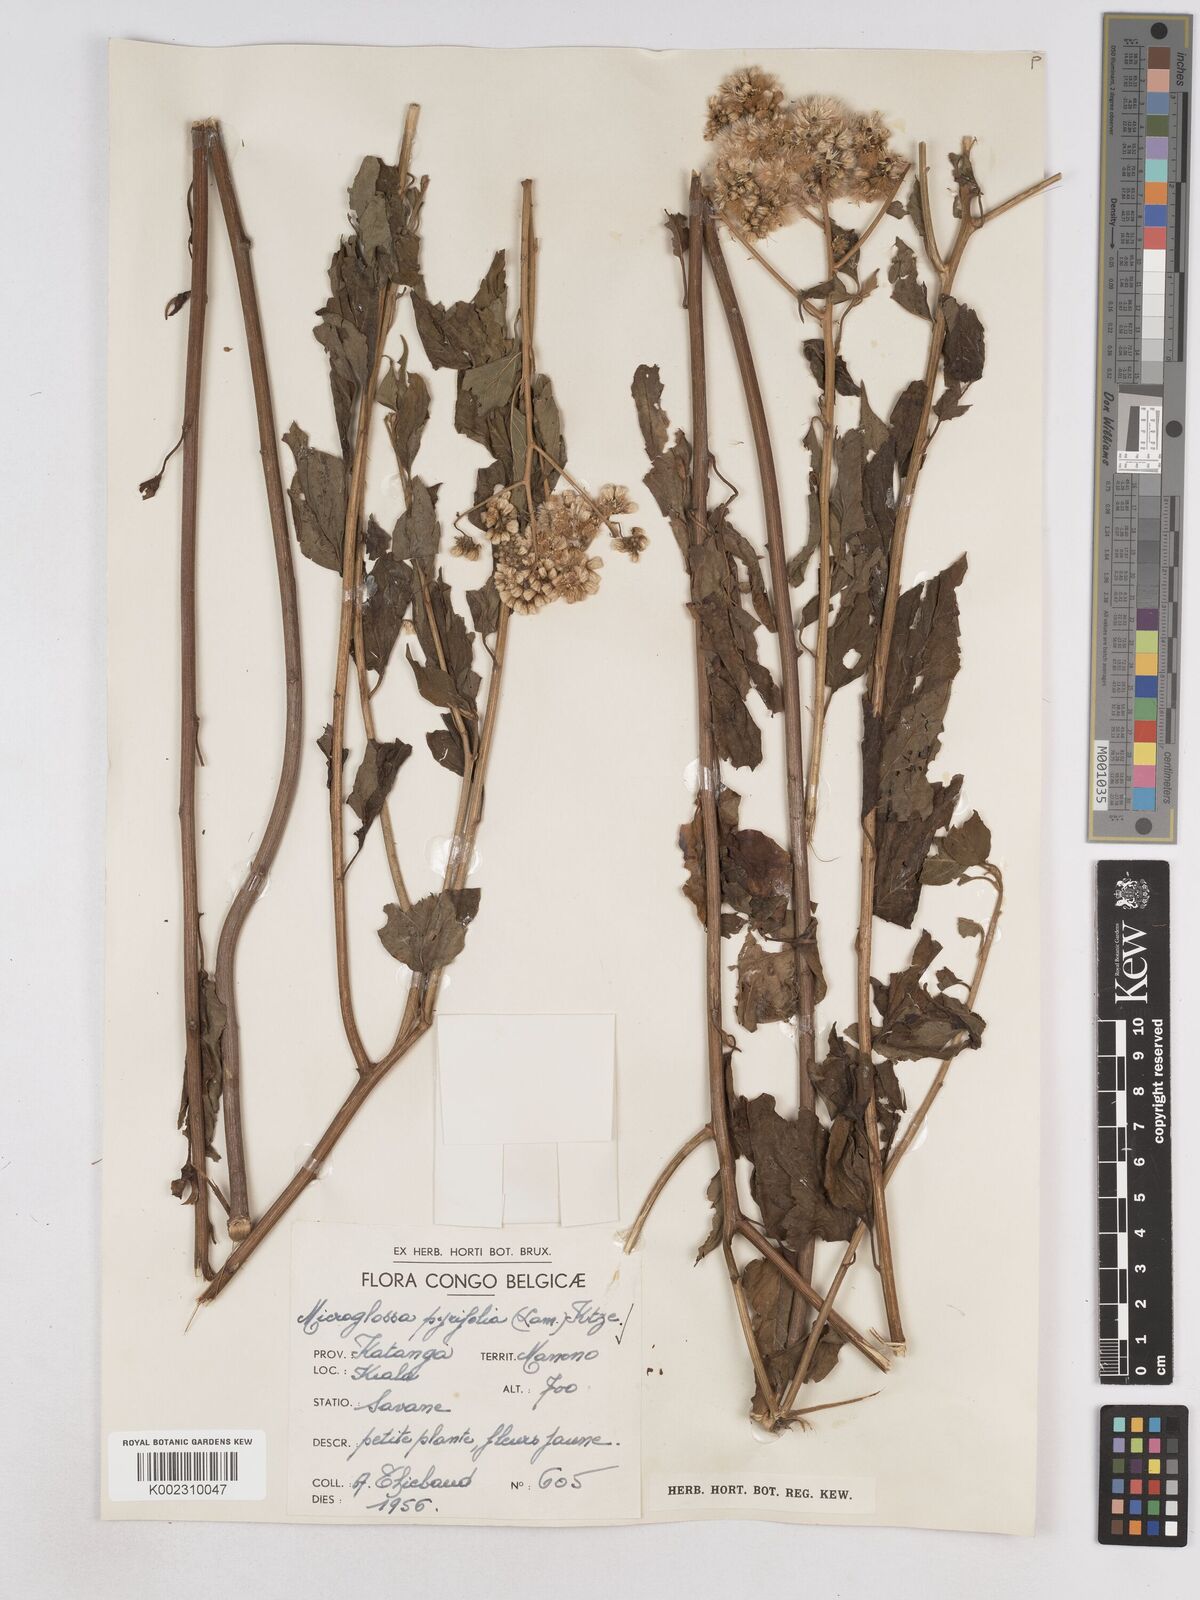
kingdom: Plantae
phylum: Tracheophyta
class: Magnoliopsida
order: Asterales
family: Asteraceae
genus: Microglossa
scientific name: Microglossa pyrifolia
